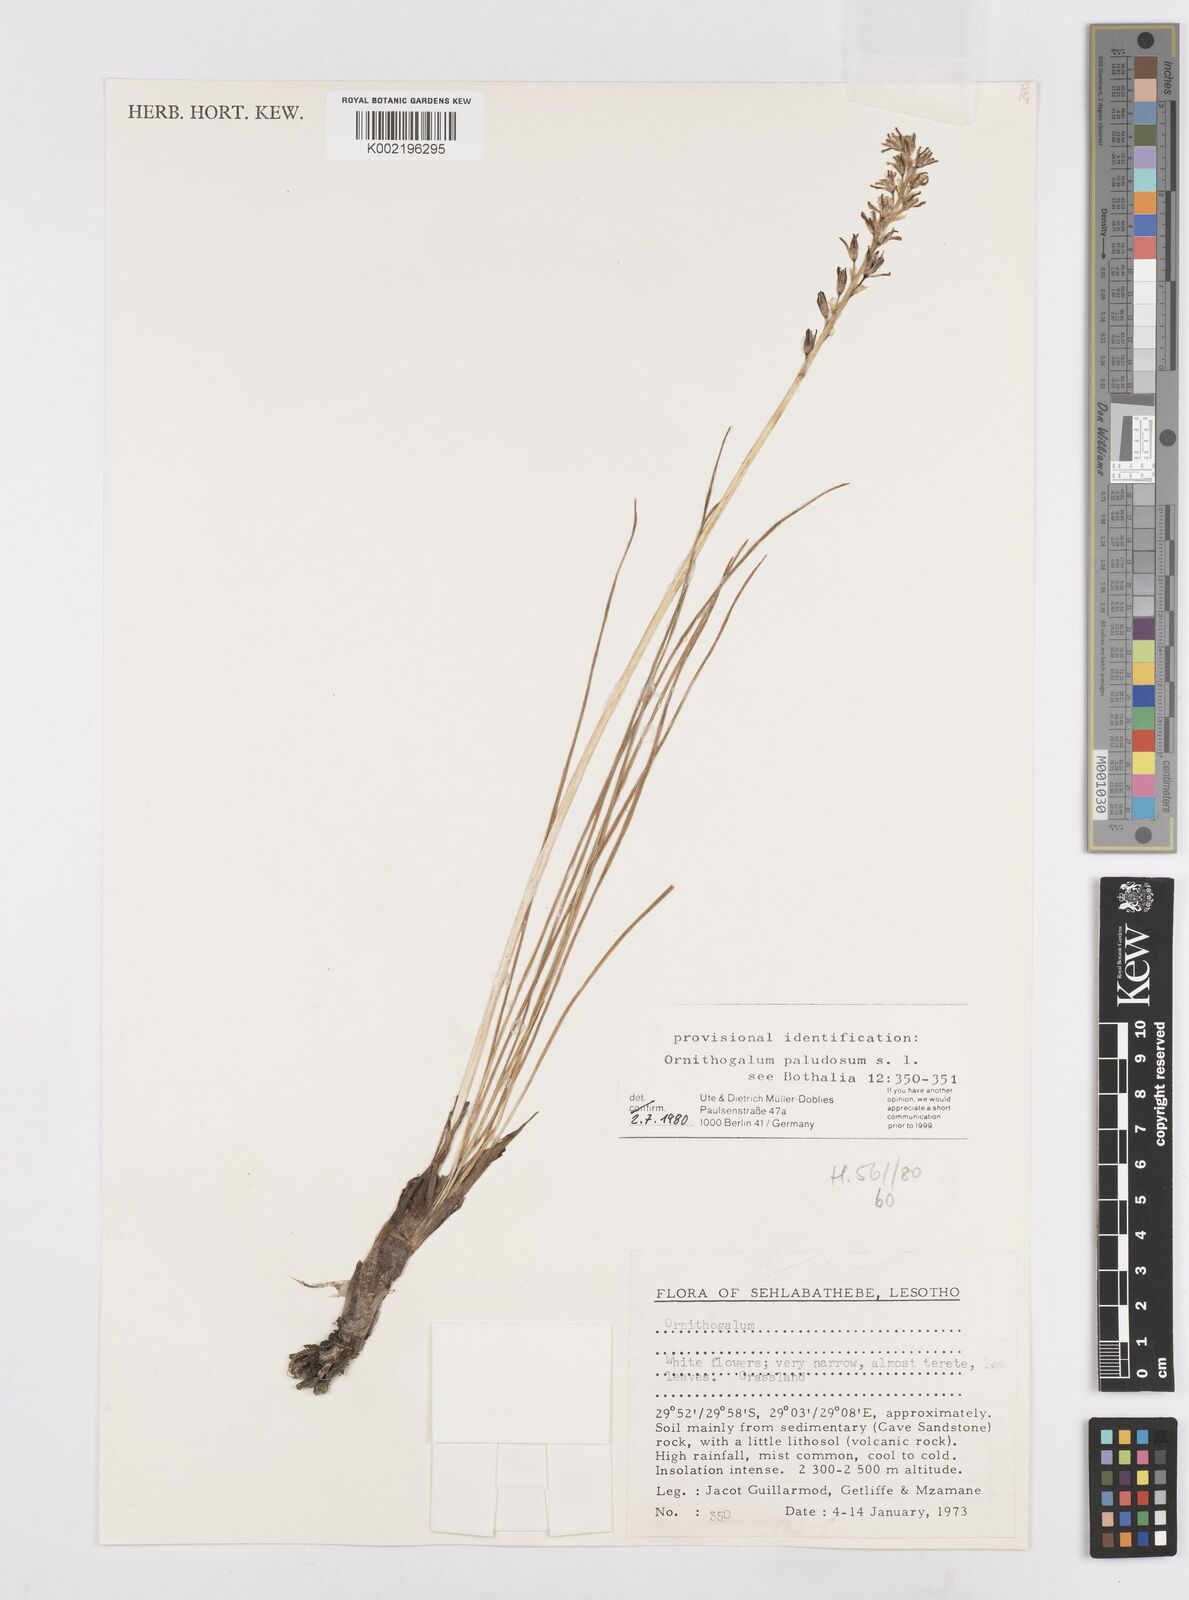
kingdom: Plantae
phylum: Tracheophyta
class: Liliopsida
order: Asparagales
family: Asparagaceae
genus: Ornithogalum
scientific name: Ornithogalum paludosum
